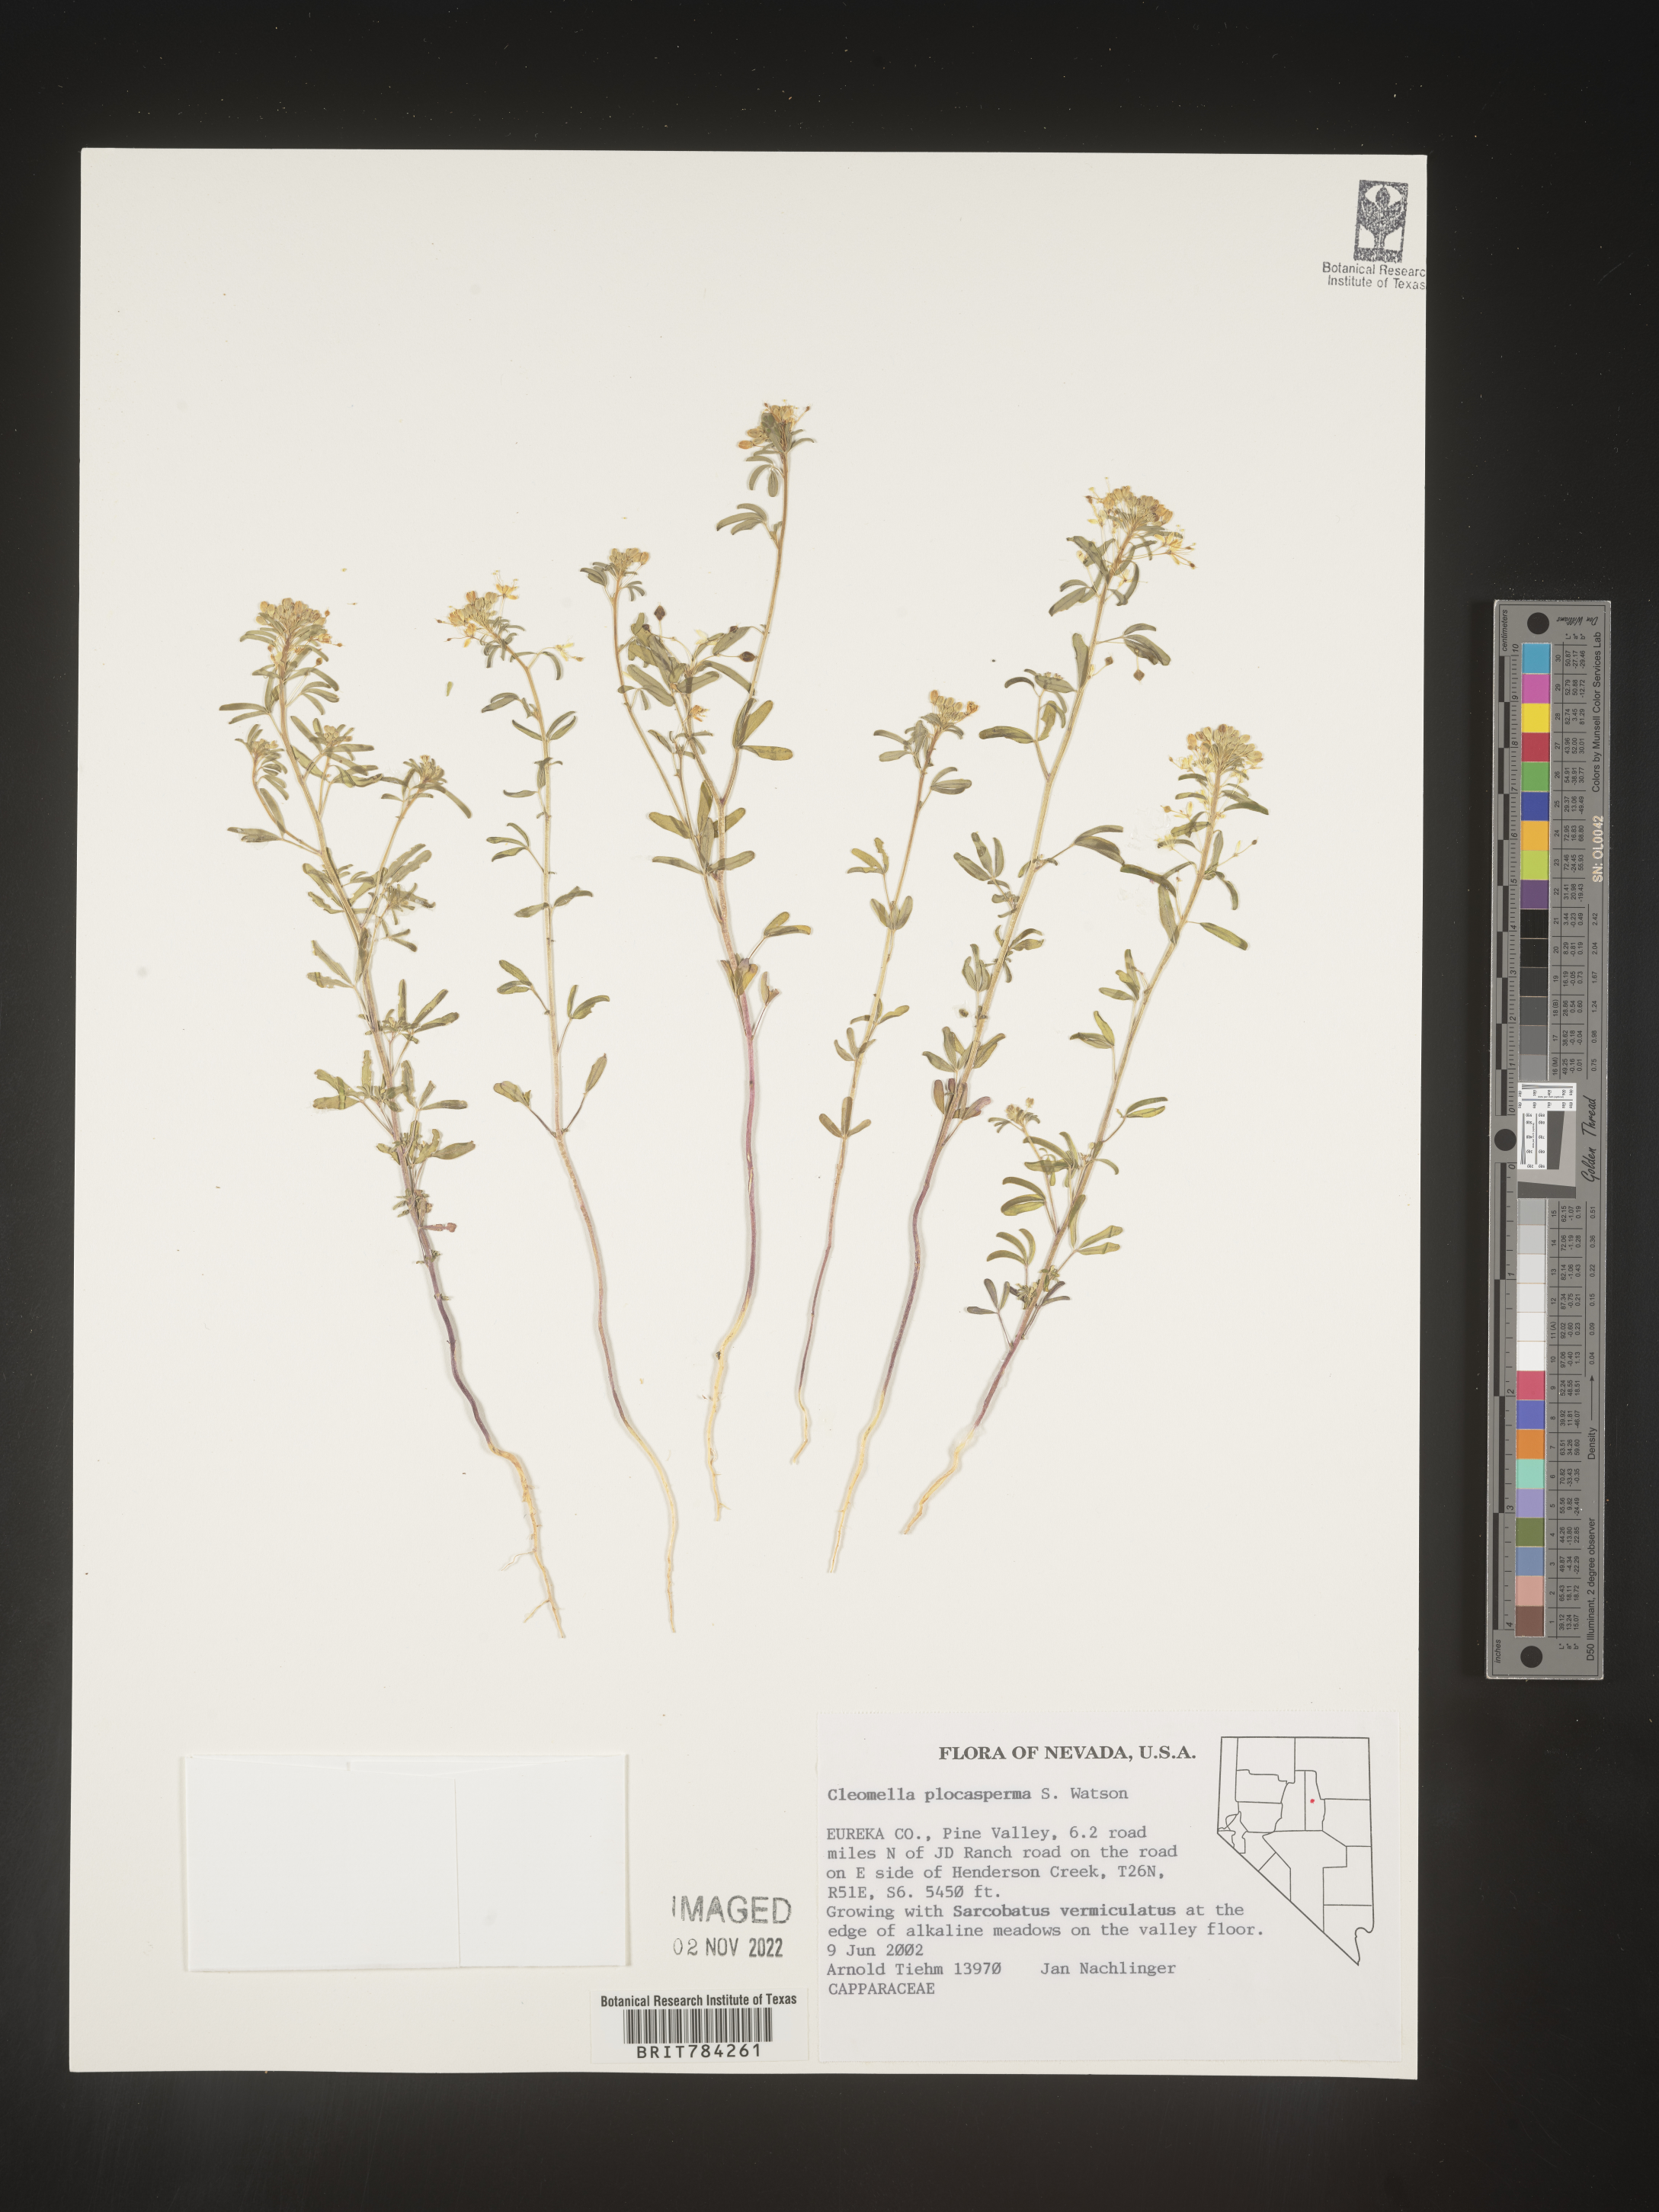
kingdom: Plantae
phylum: Tracheophyta
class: Magnoliopsida
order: Brassicales
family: Cleomaceae
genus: Cleomella
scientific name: Cleomella
